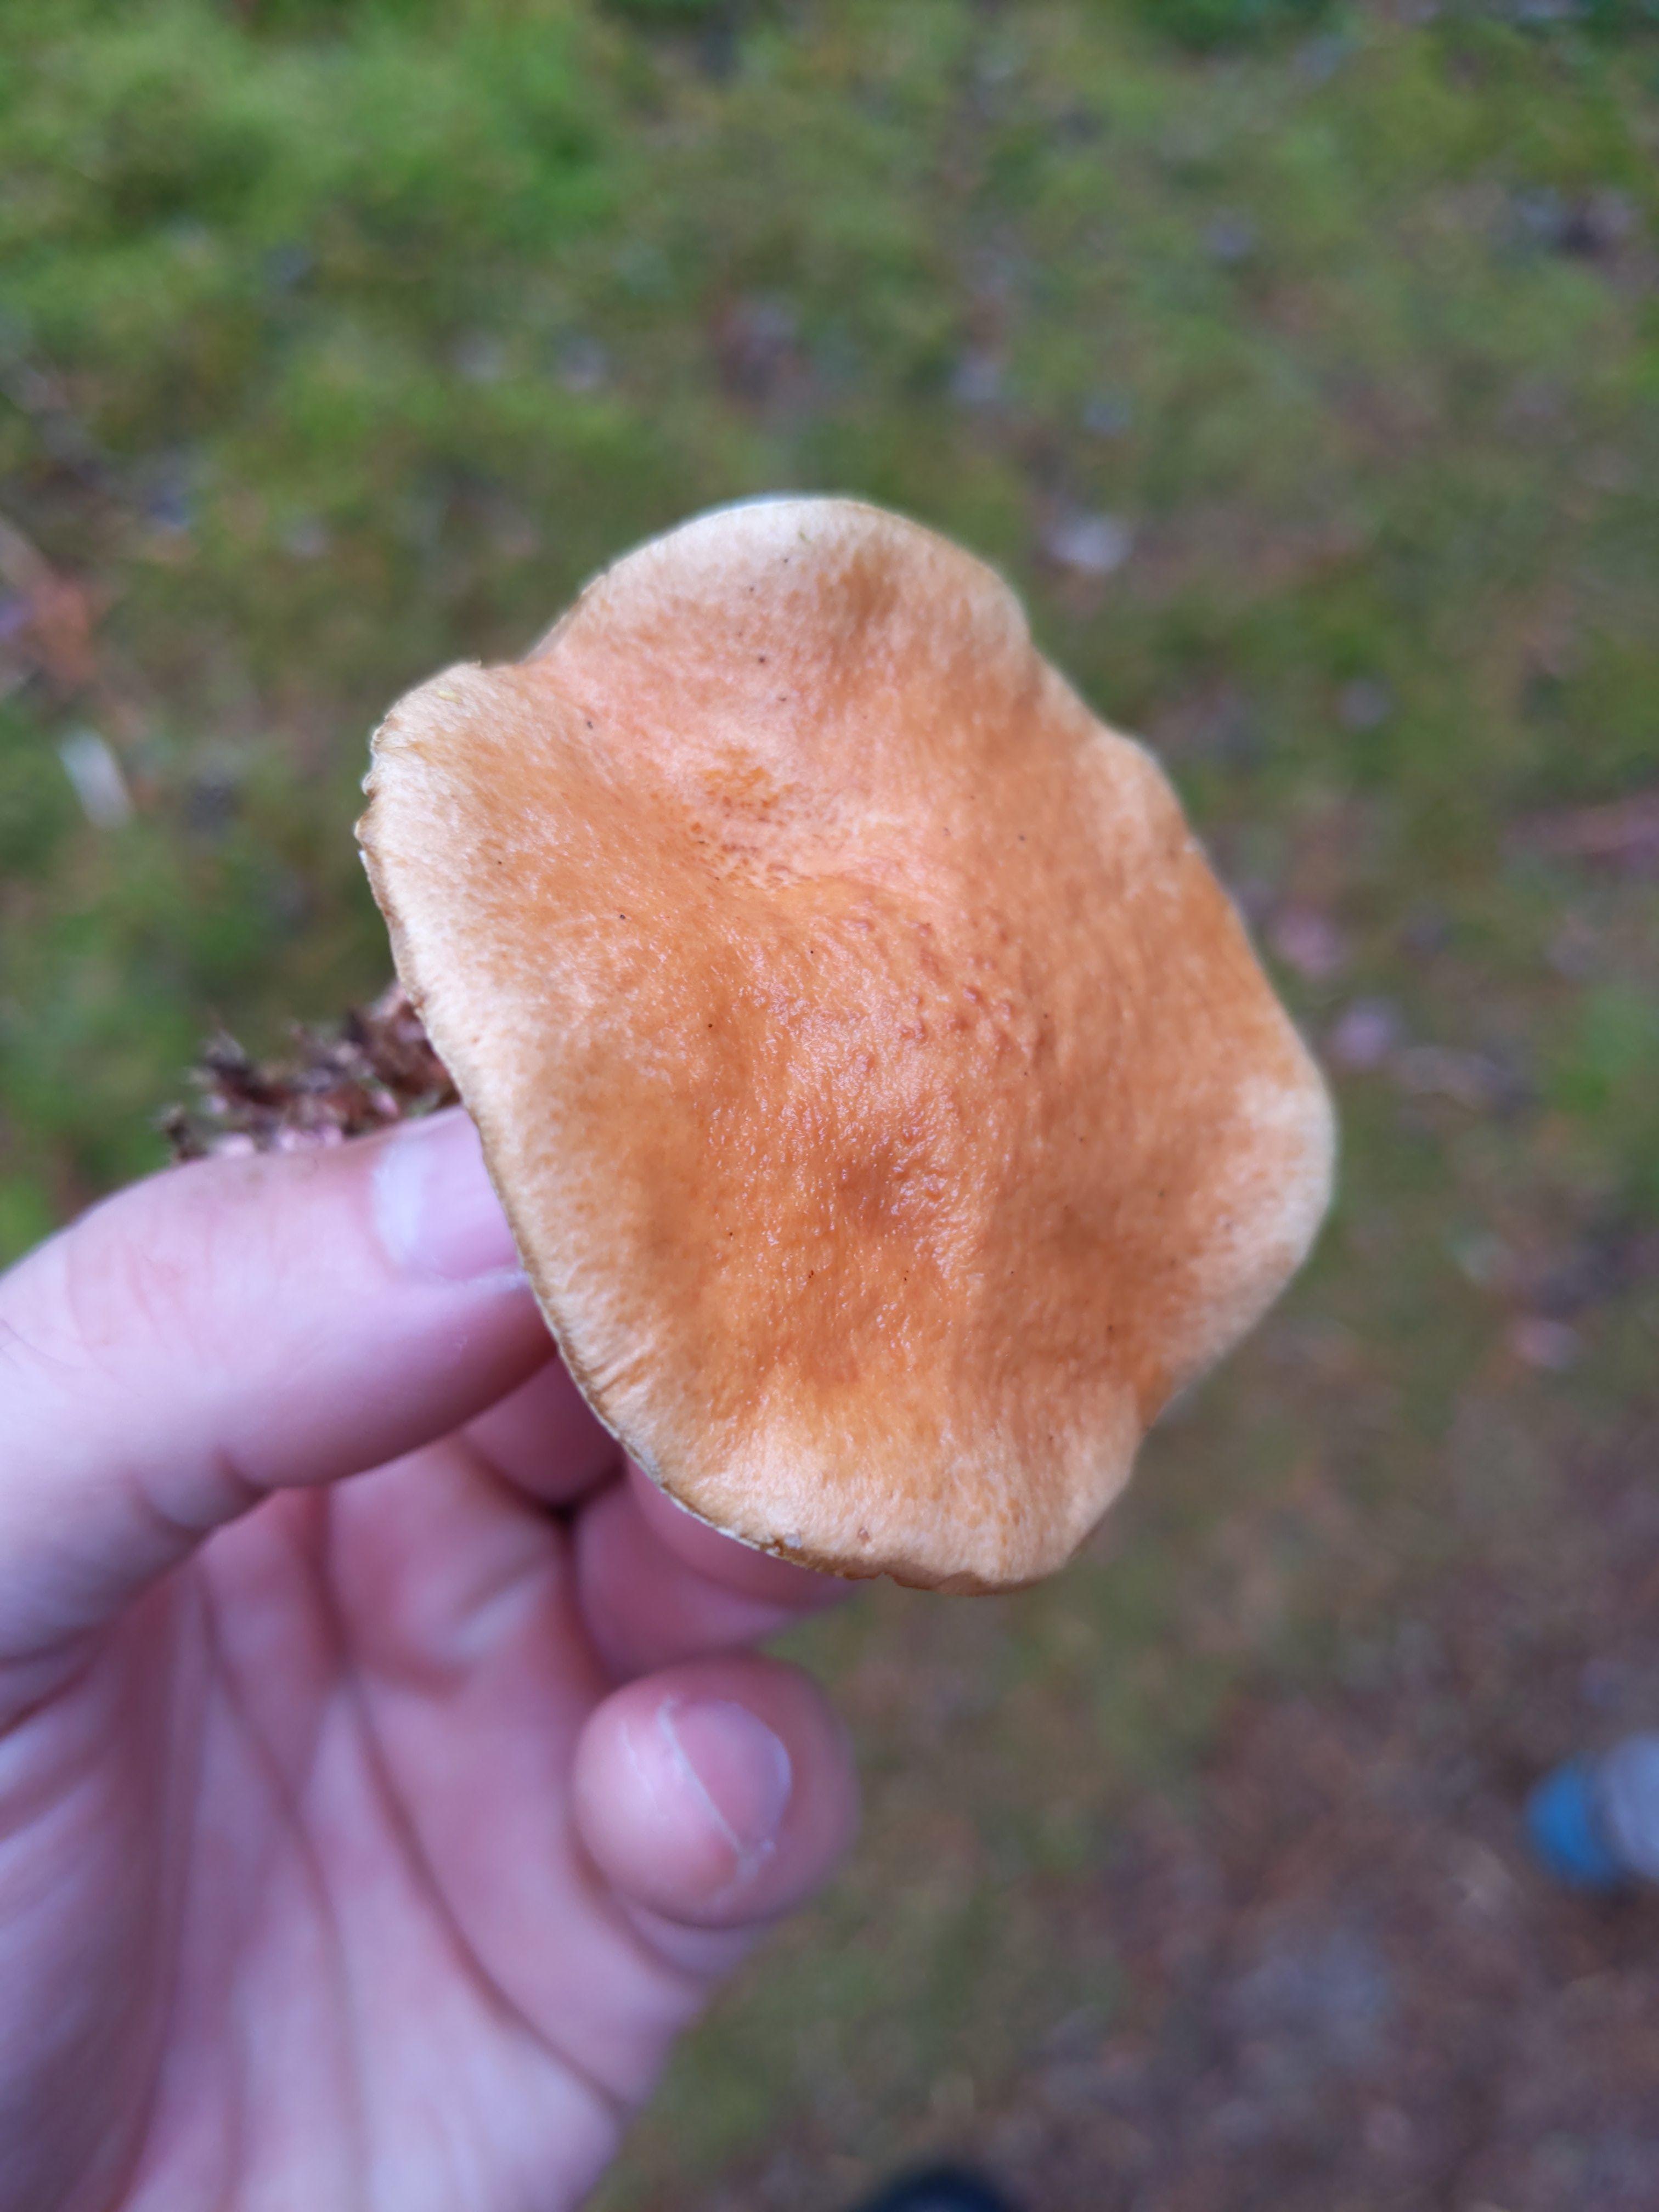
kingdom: Fungi
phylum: Basidiomycota
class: Agaricomycetes
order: Boletales
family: Suillaceae
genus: Suillus
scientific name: Suillus bovinus
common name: grovporet slimrørhat
